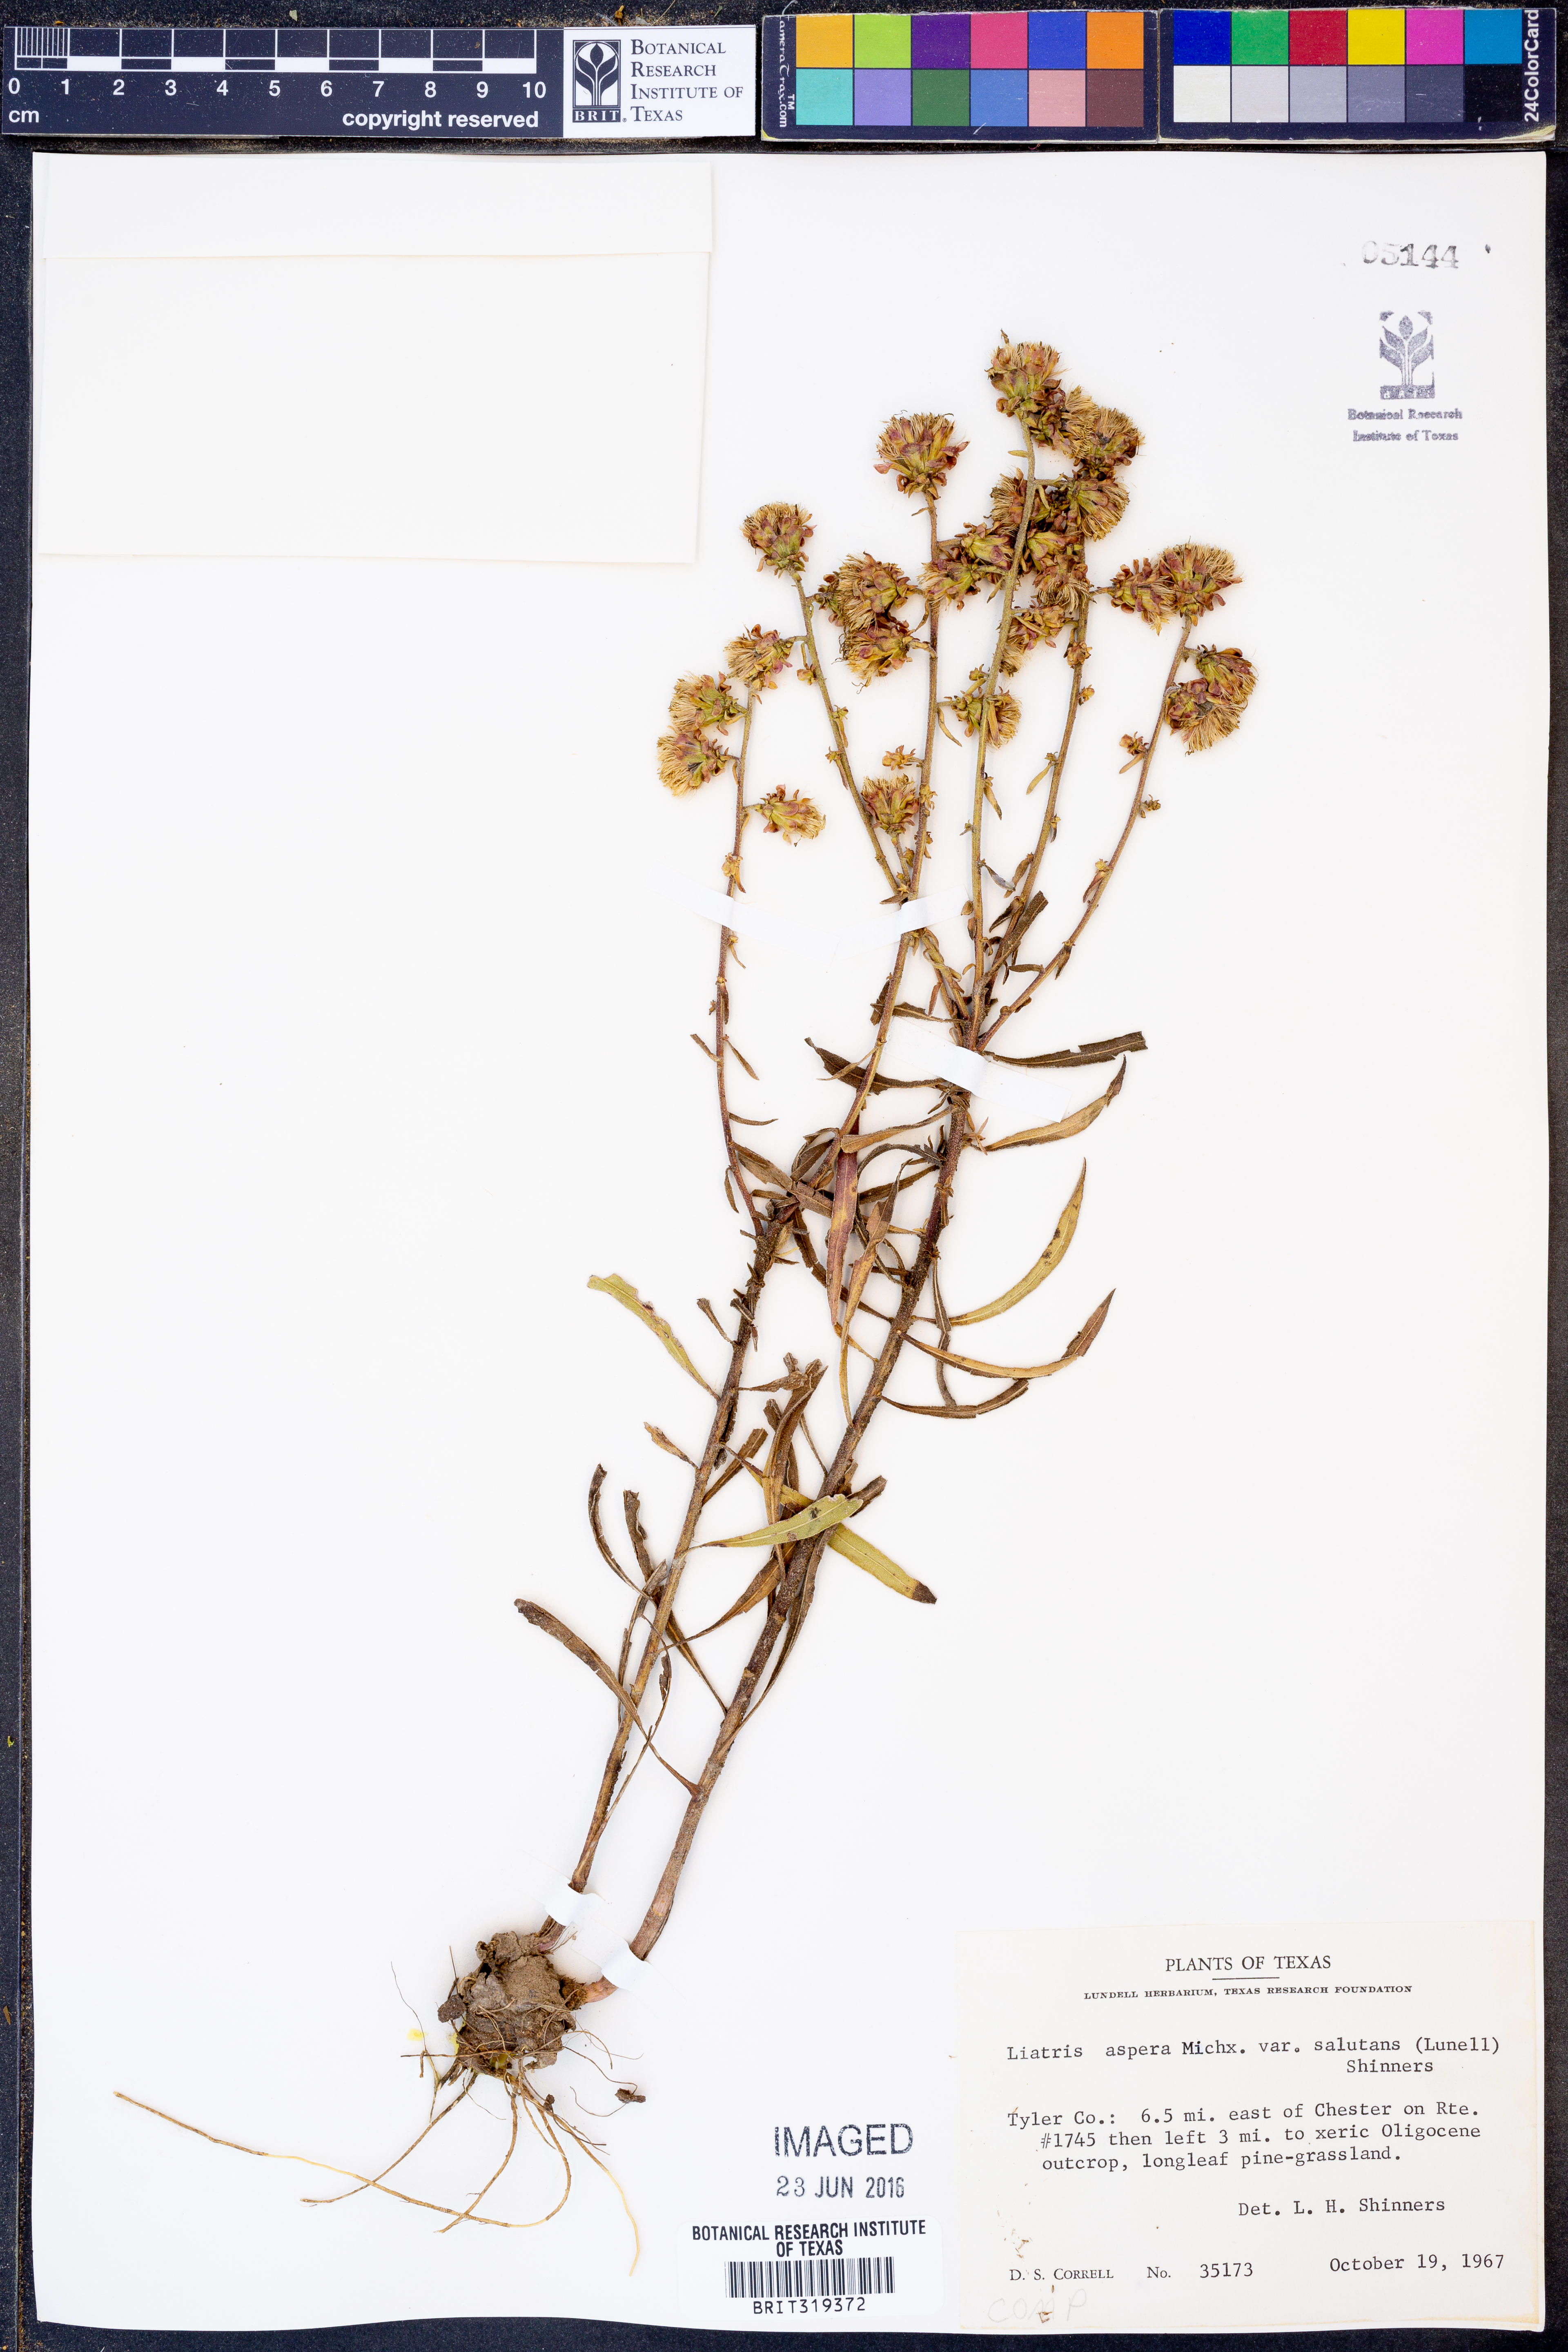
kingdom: Plantae
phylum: Tracheophyta
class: Magnoliopsida
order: Asterales
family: Asteraceae
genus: Liatris
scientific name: Liatris aspera
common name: Lacerate blazing-star
